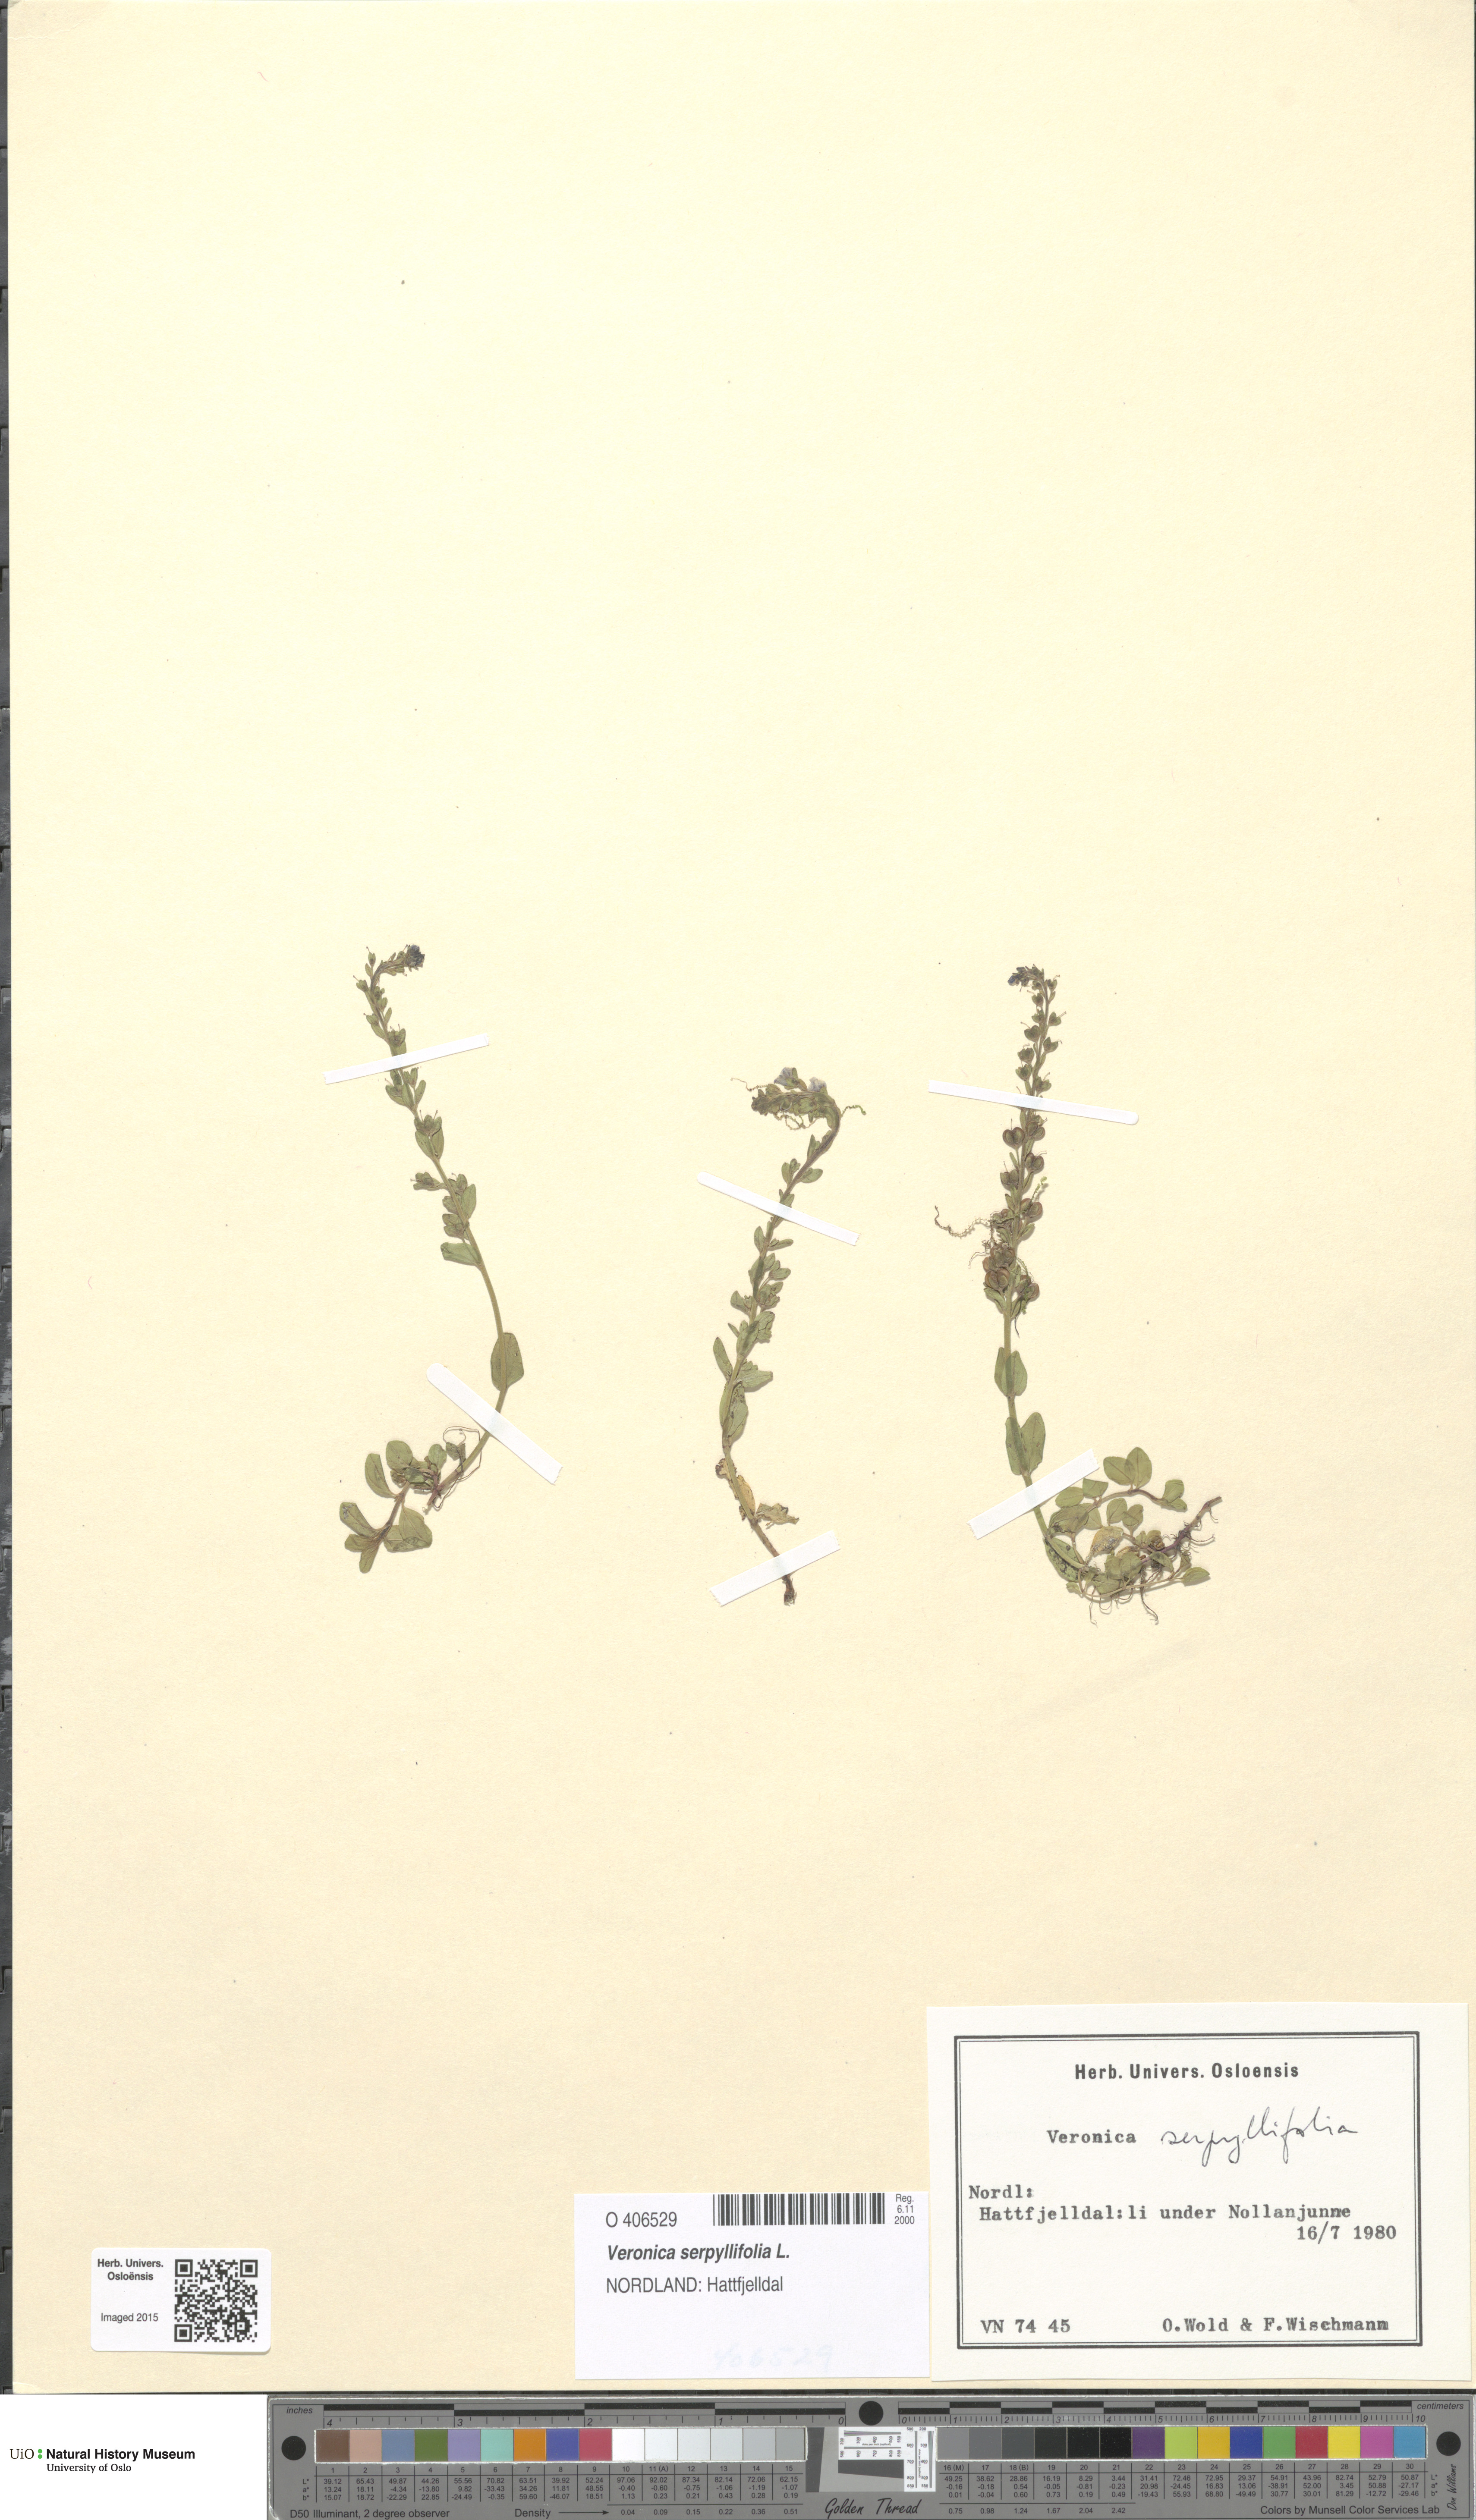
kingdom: Plantae
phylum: Tracheophyta
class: Magnoliopsida
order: Lamiales
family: Plantaginaceae
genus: Veronica
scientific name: Veronica serpyllifolia
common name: Thyme-leaved speedwell
